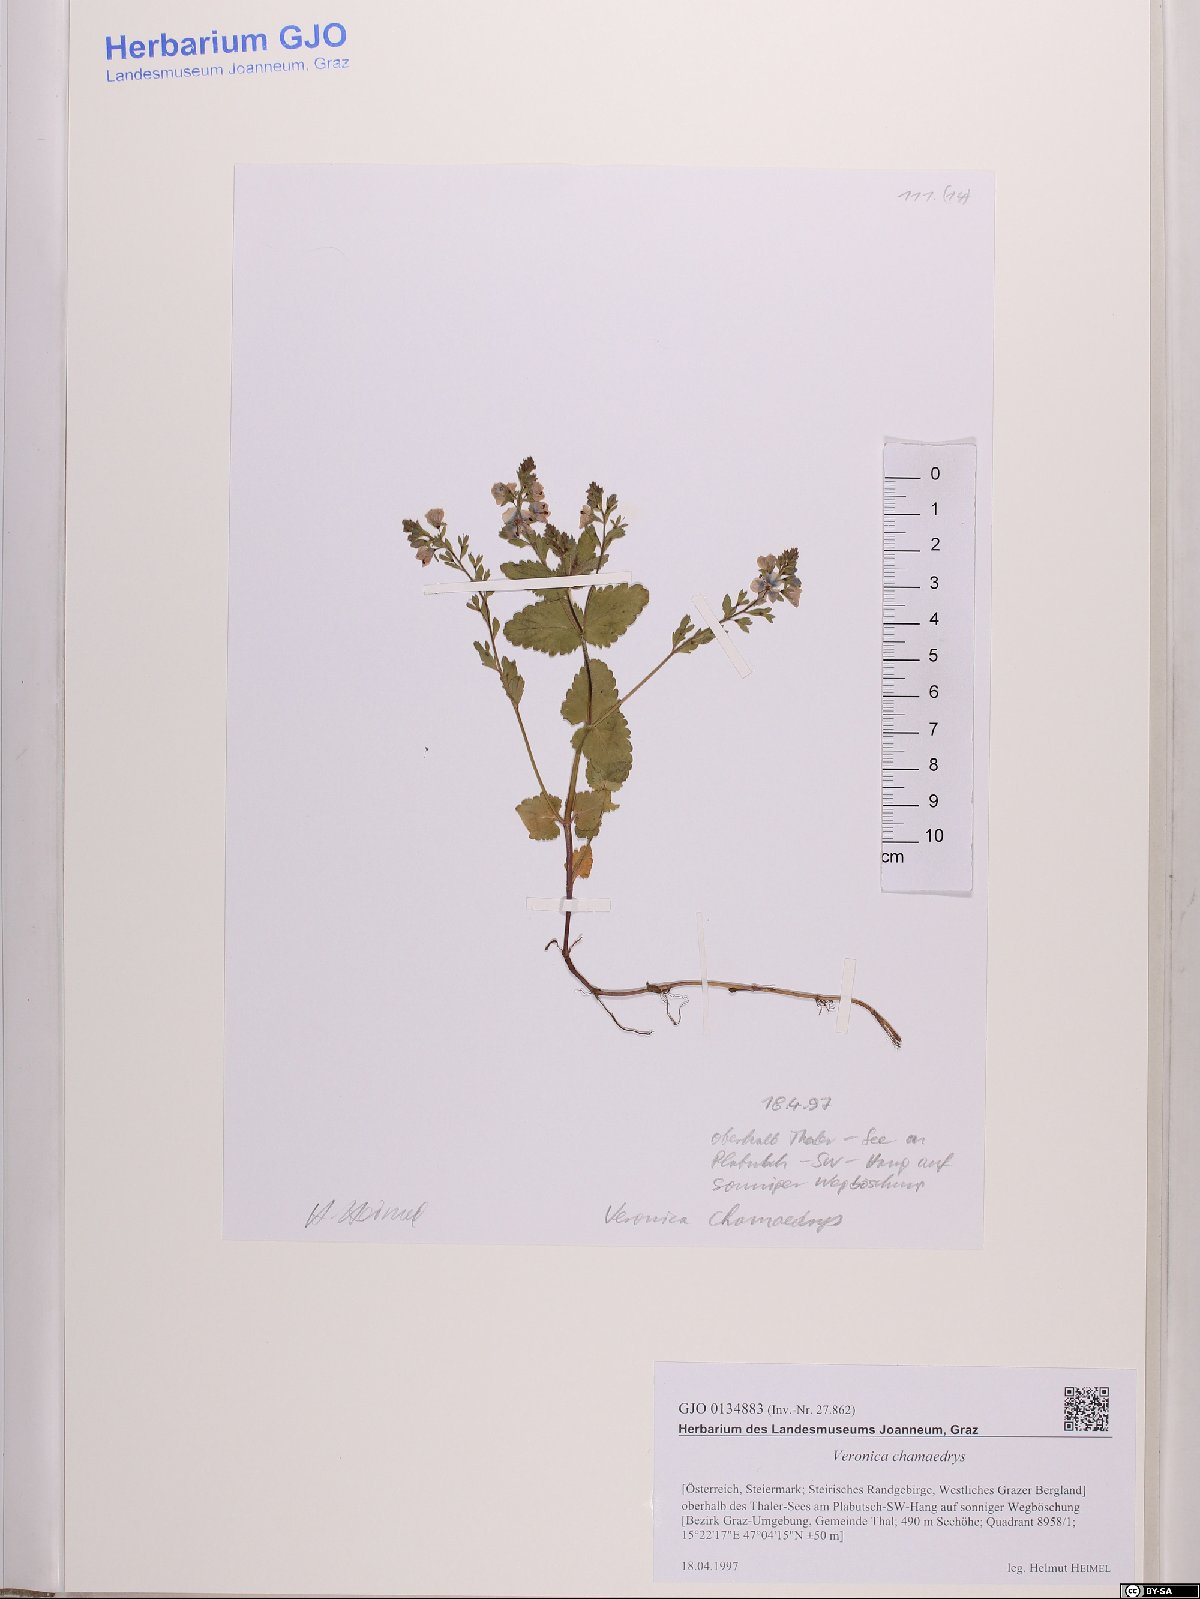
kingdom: Plantae
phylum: Tracheophyta
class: Magnoliopsida
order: Lamiales
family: Plantaginaceae
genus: Veronica
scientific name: Veronica chamaedrys
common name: Germander speedwell
